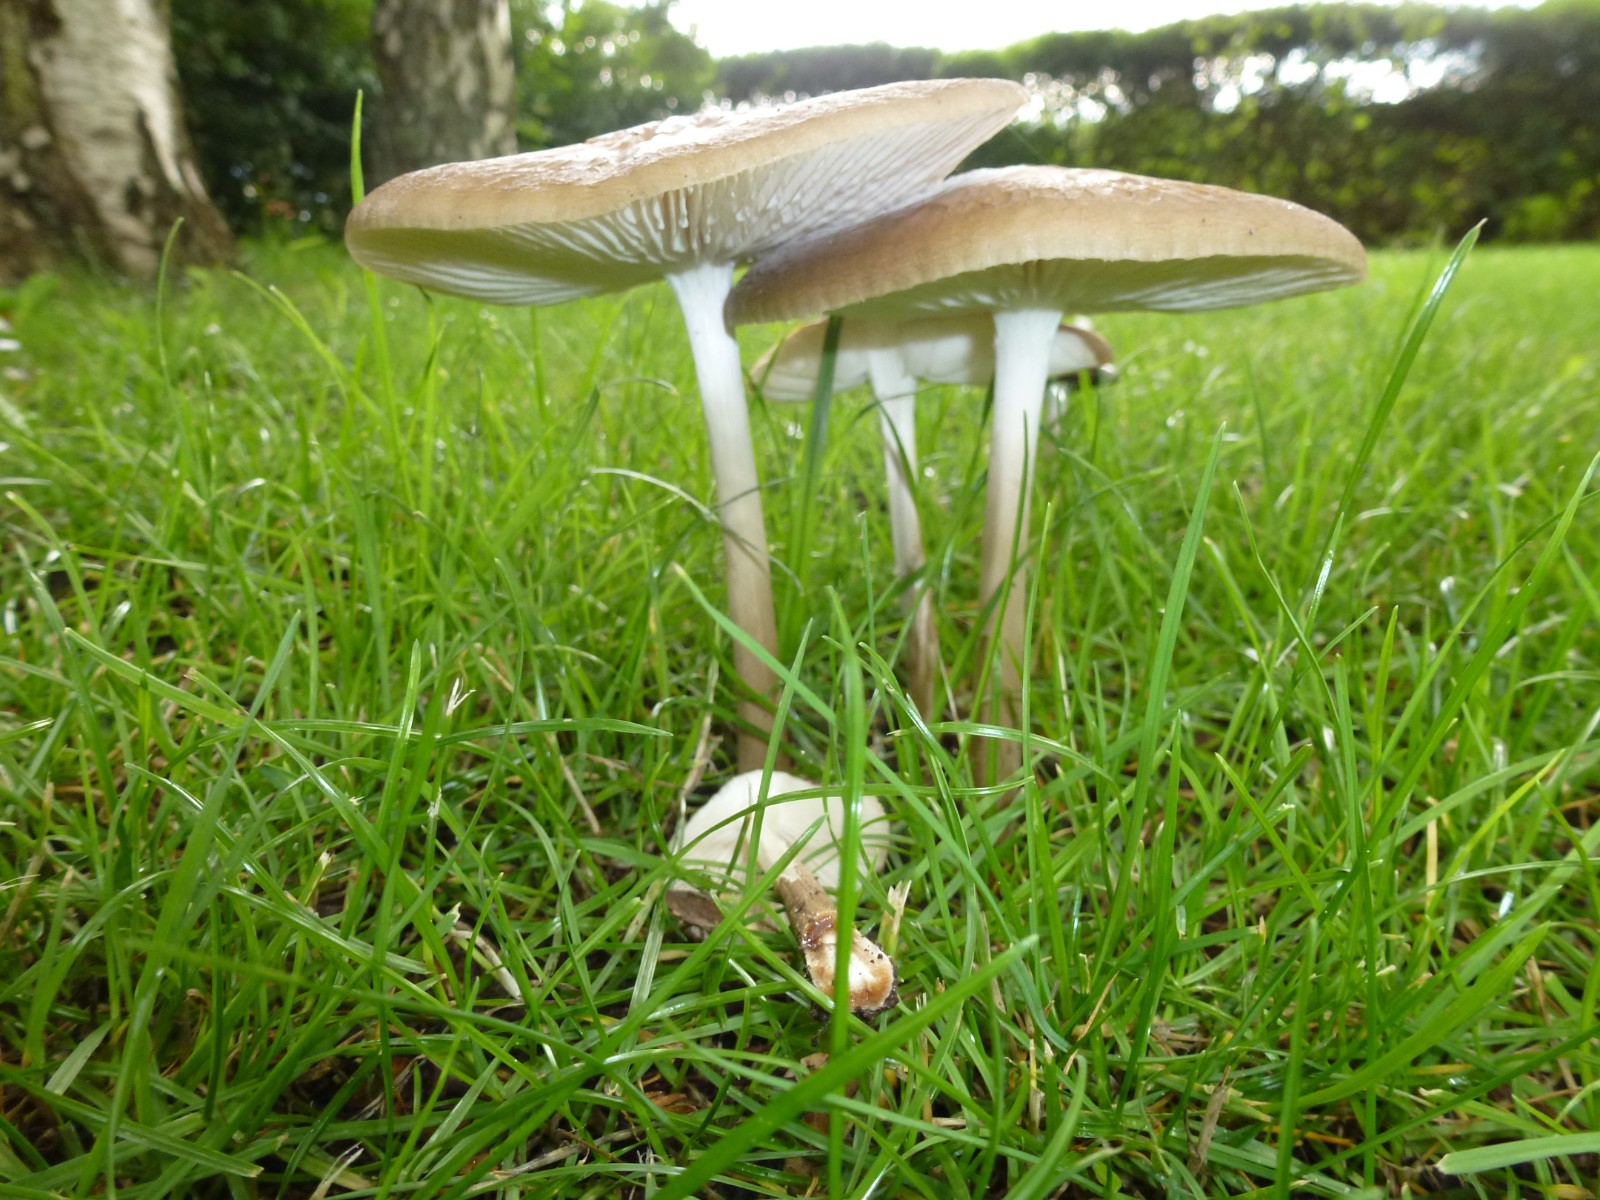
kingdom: Fungi
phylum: Basidiomycota
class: Agaricomycetes
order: Agaricales
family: Physalacriaceae
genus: Hymenopellis
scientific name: Hymenopellis radicata
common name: almindelig pælerodshat
